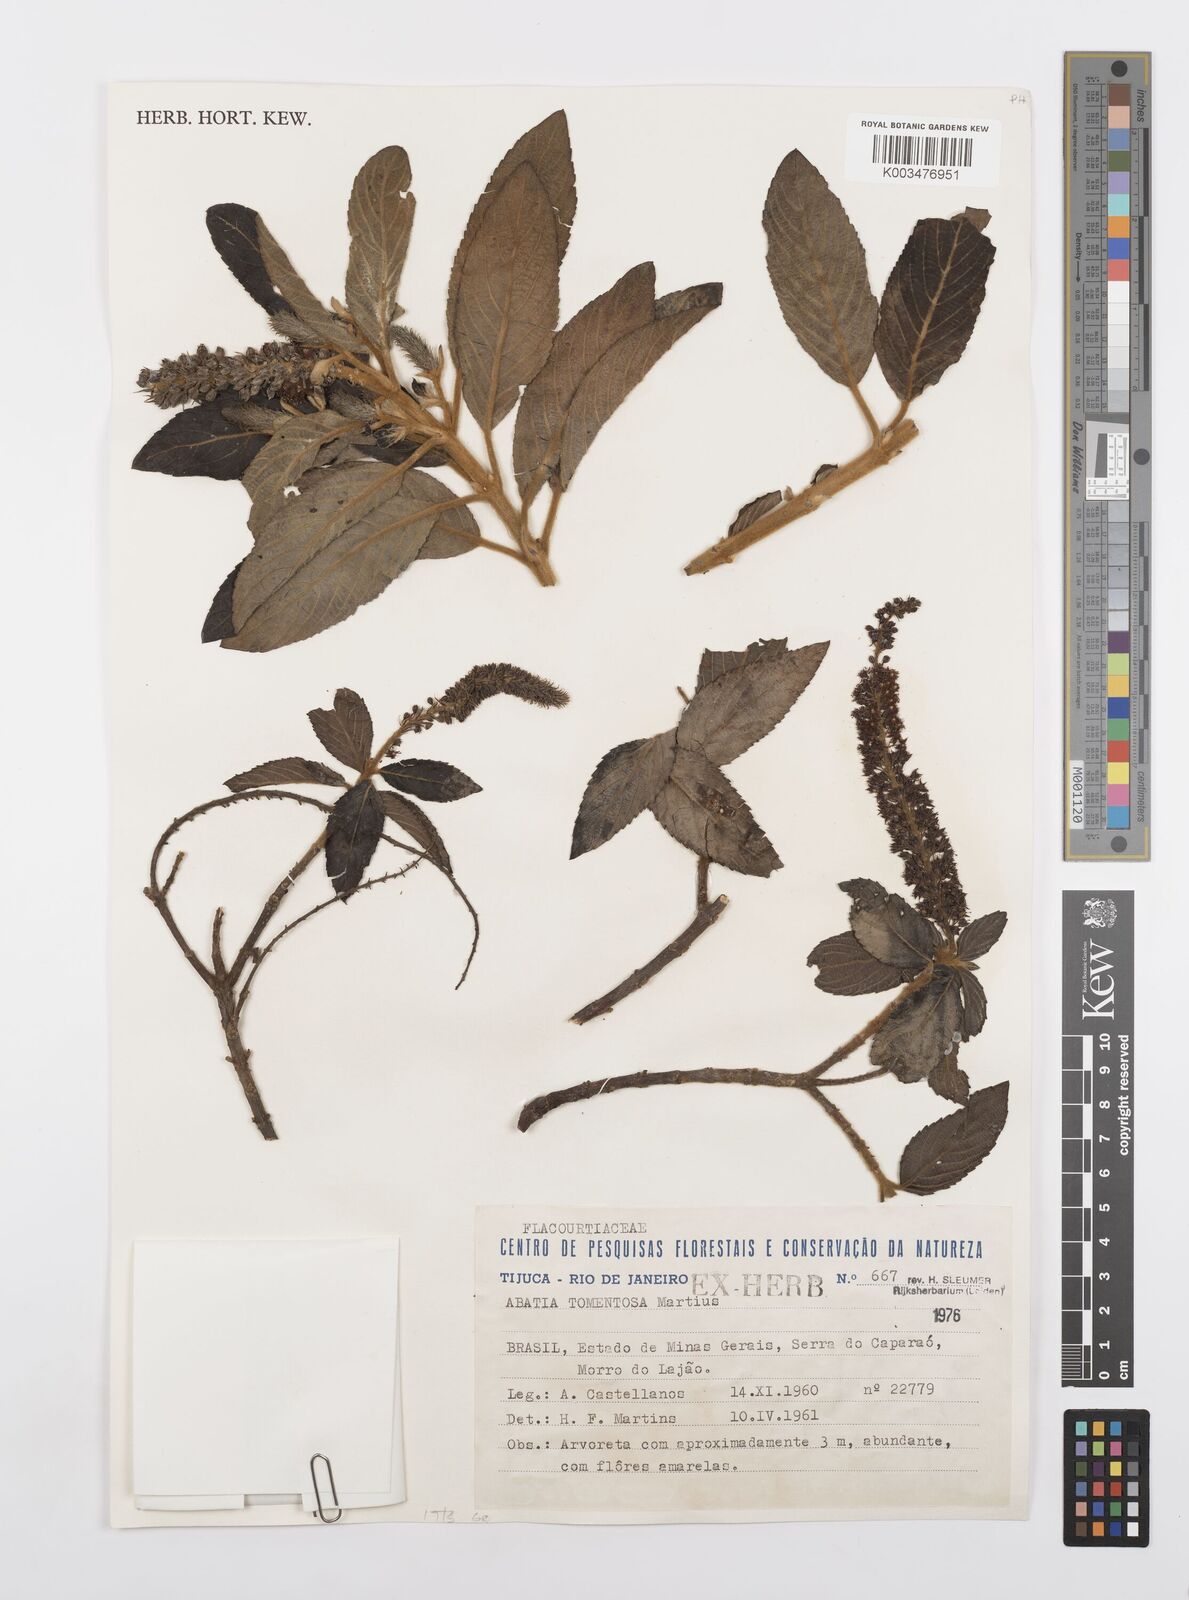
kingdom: Plantae
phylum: Tracheophyta
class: Magnoliopsida
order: Malpighiales
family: Salicaceae
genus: Abatia
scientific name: Abatia americana
